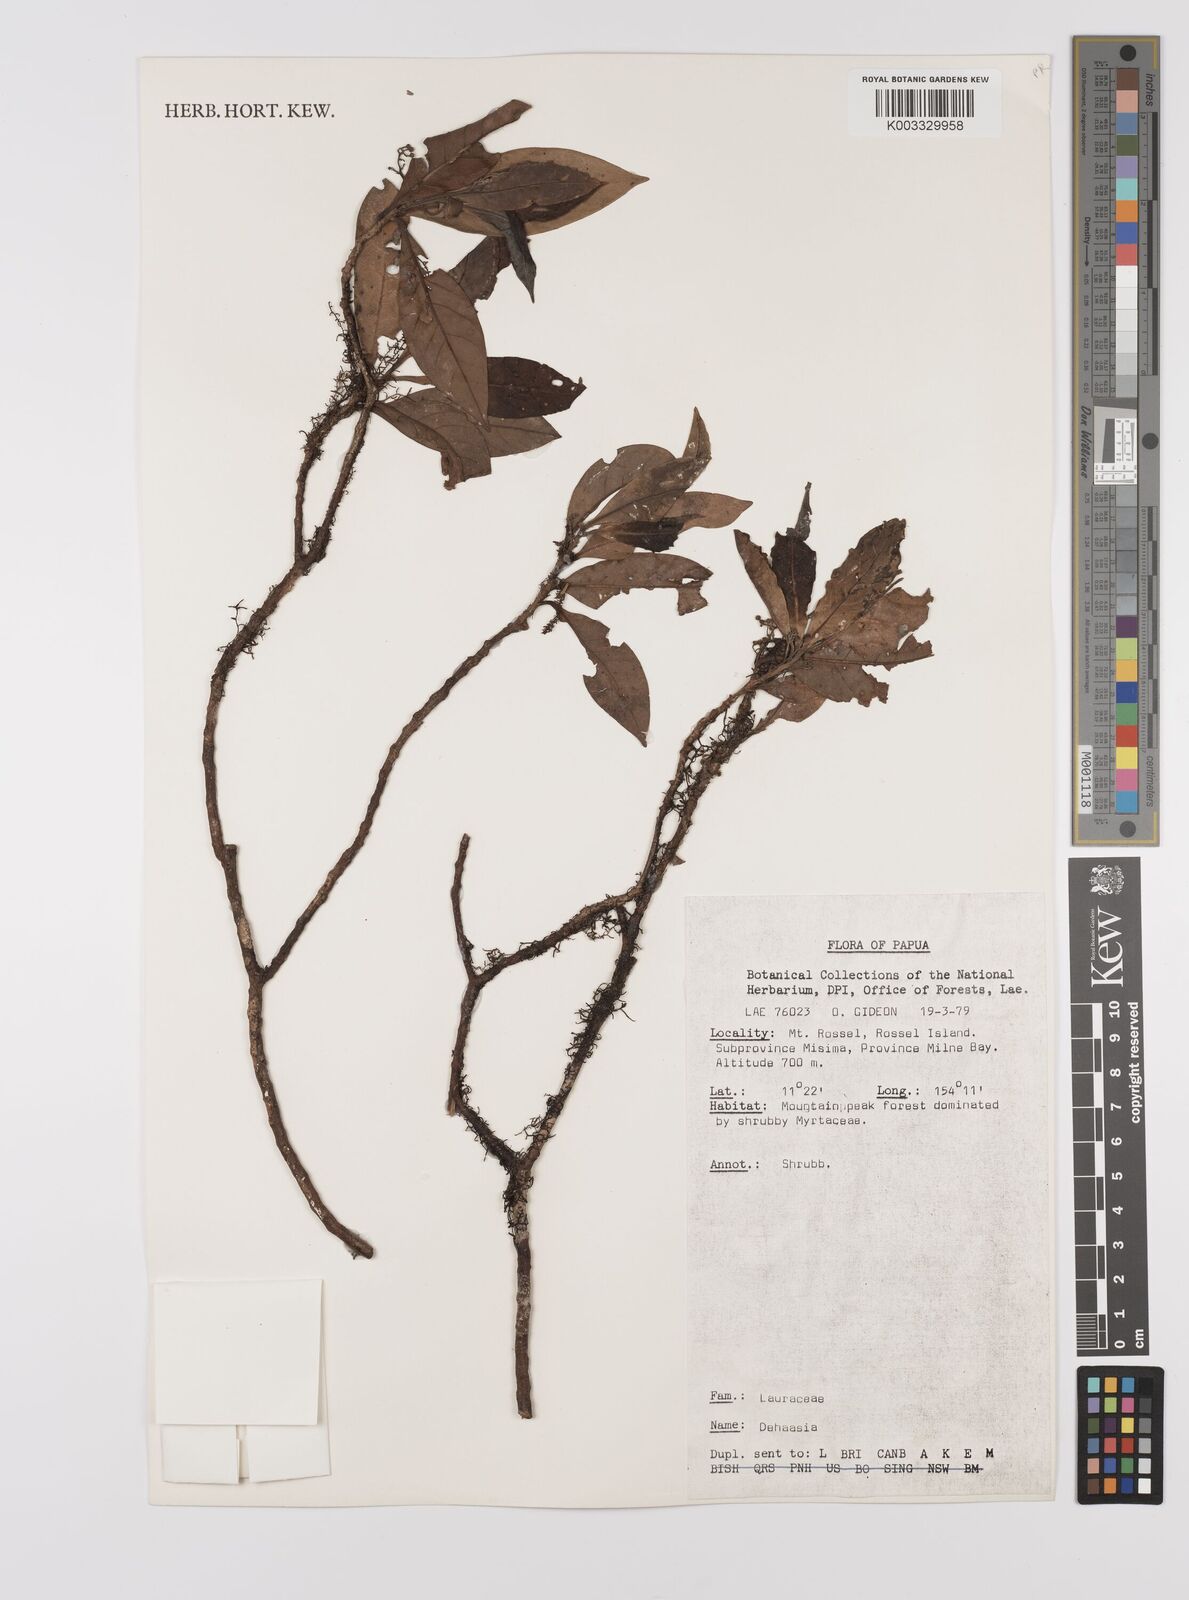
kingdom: Plantae
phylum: Tracheophyta
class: Magnoliopsida
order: Laurales
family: Lauraceae
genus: Dehaasia
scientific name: Dehaasia
